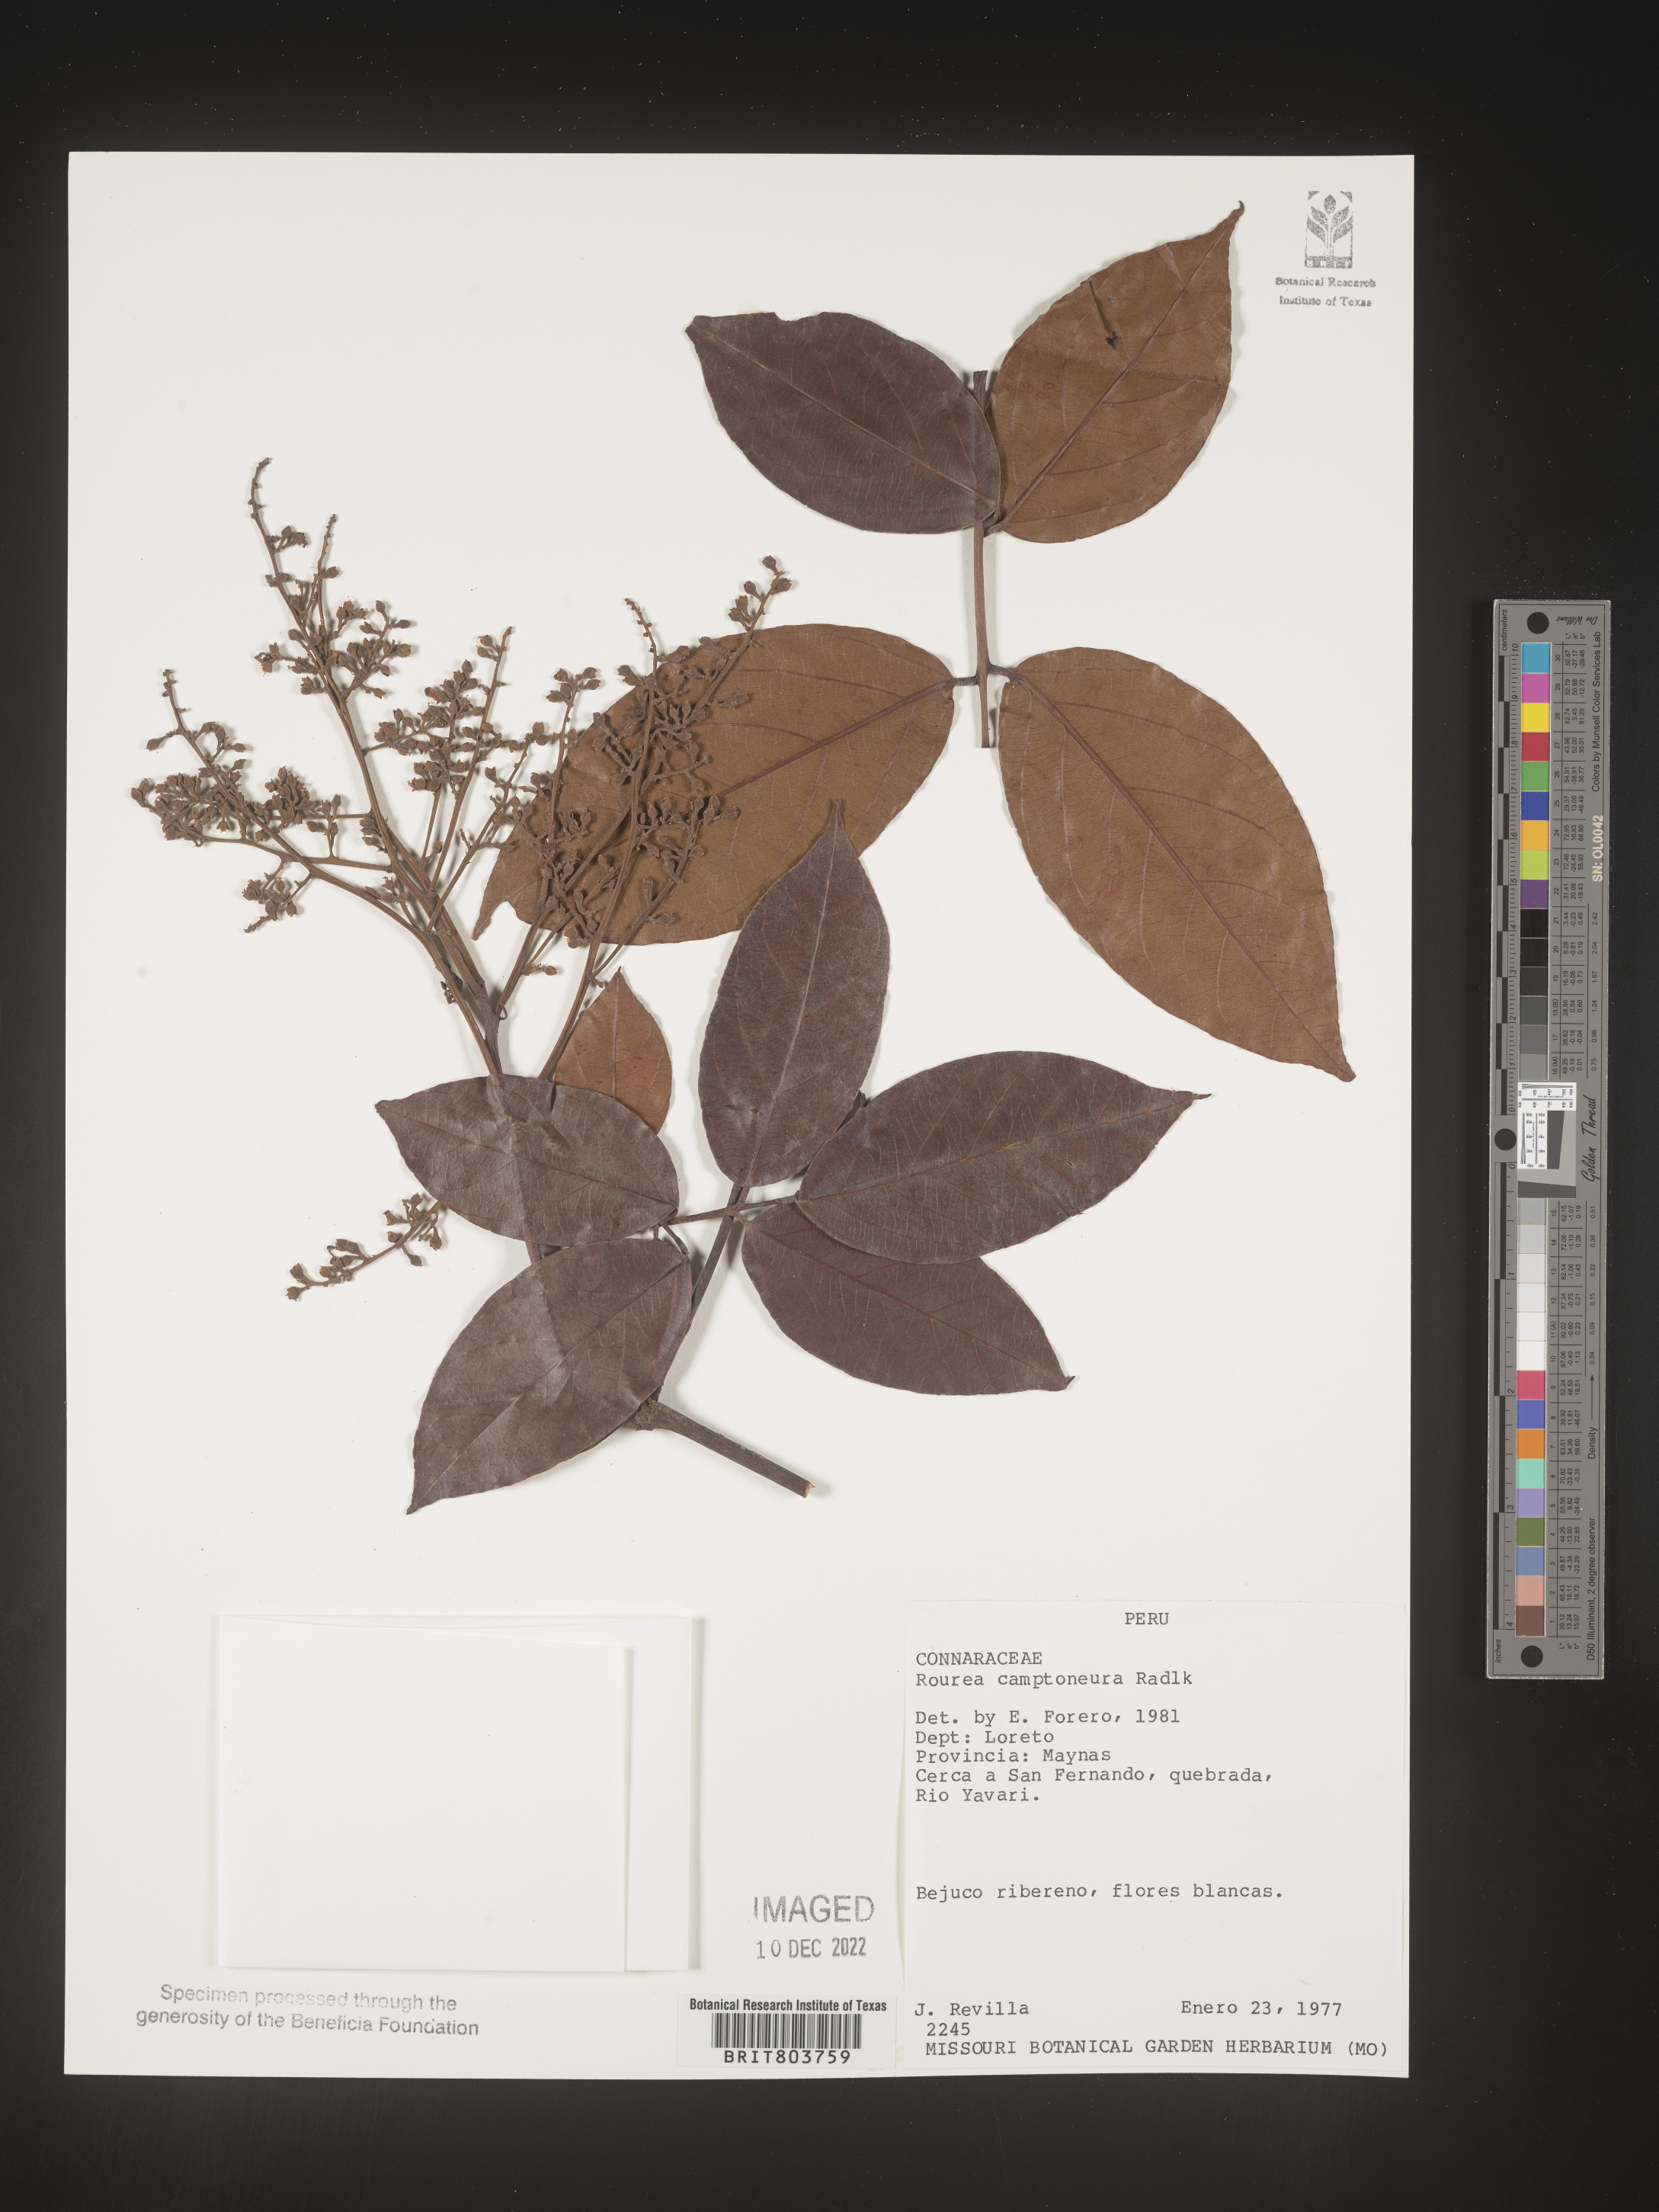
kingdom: Plantae
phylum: Tracheophyta
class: Magnoliopsida
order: Oxalidales
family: Connaraceae
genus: Rourea
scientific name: Rourea
